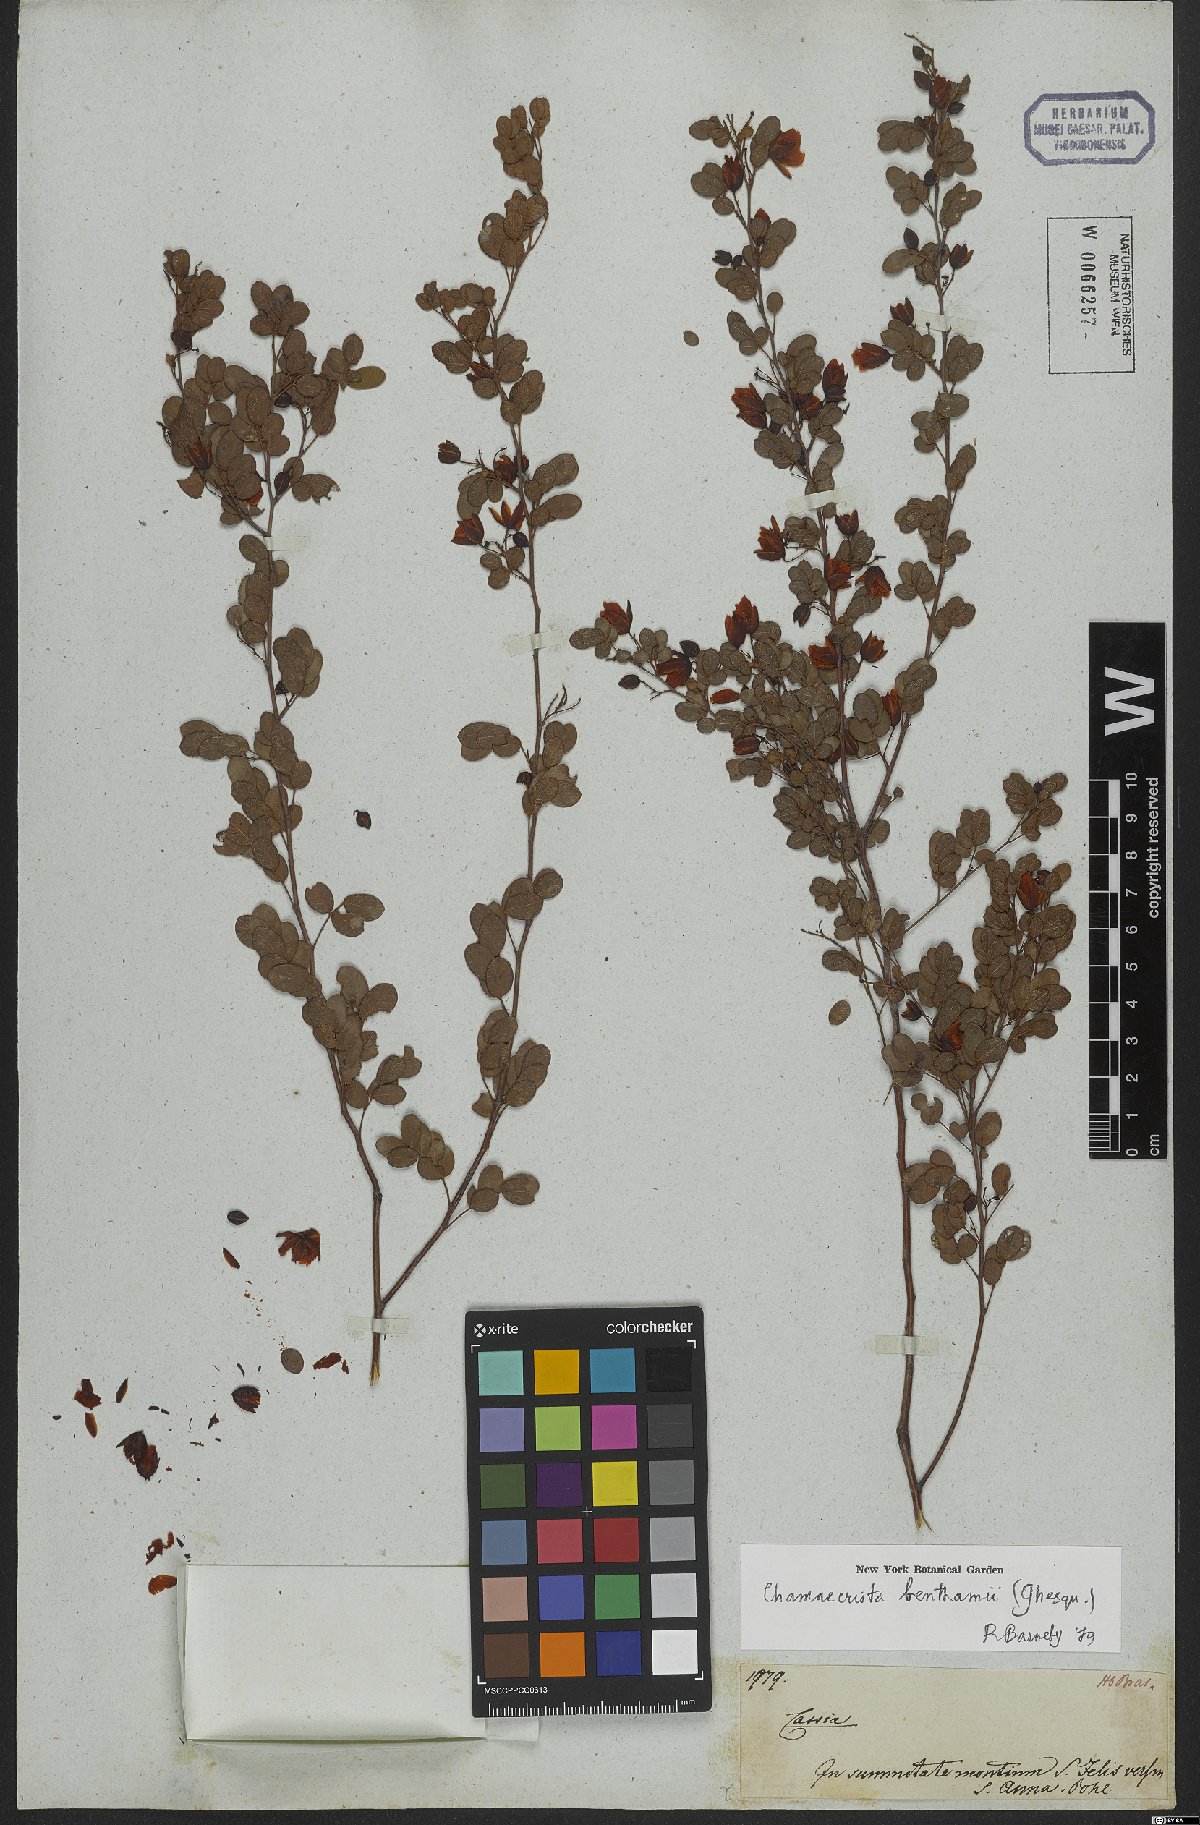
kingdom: Plantae
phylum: Tracheophyta
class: Magnoliopsida
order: Fabales
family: Fabaceae
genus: Chamaecrista
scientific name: Chamaecrista benthamii
